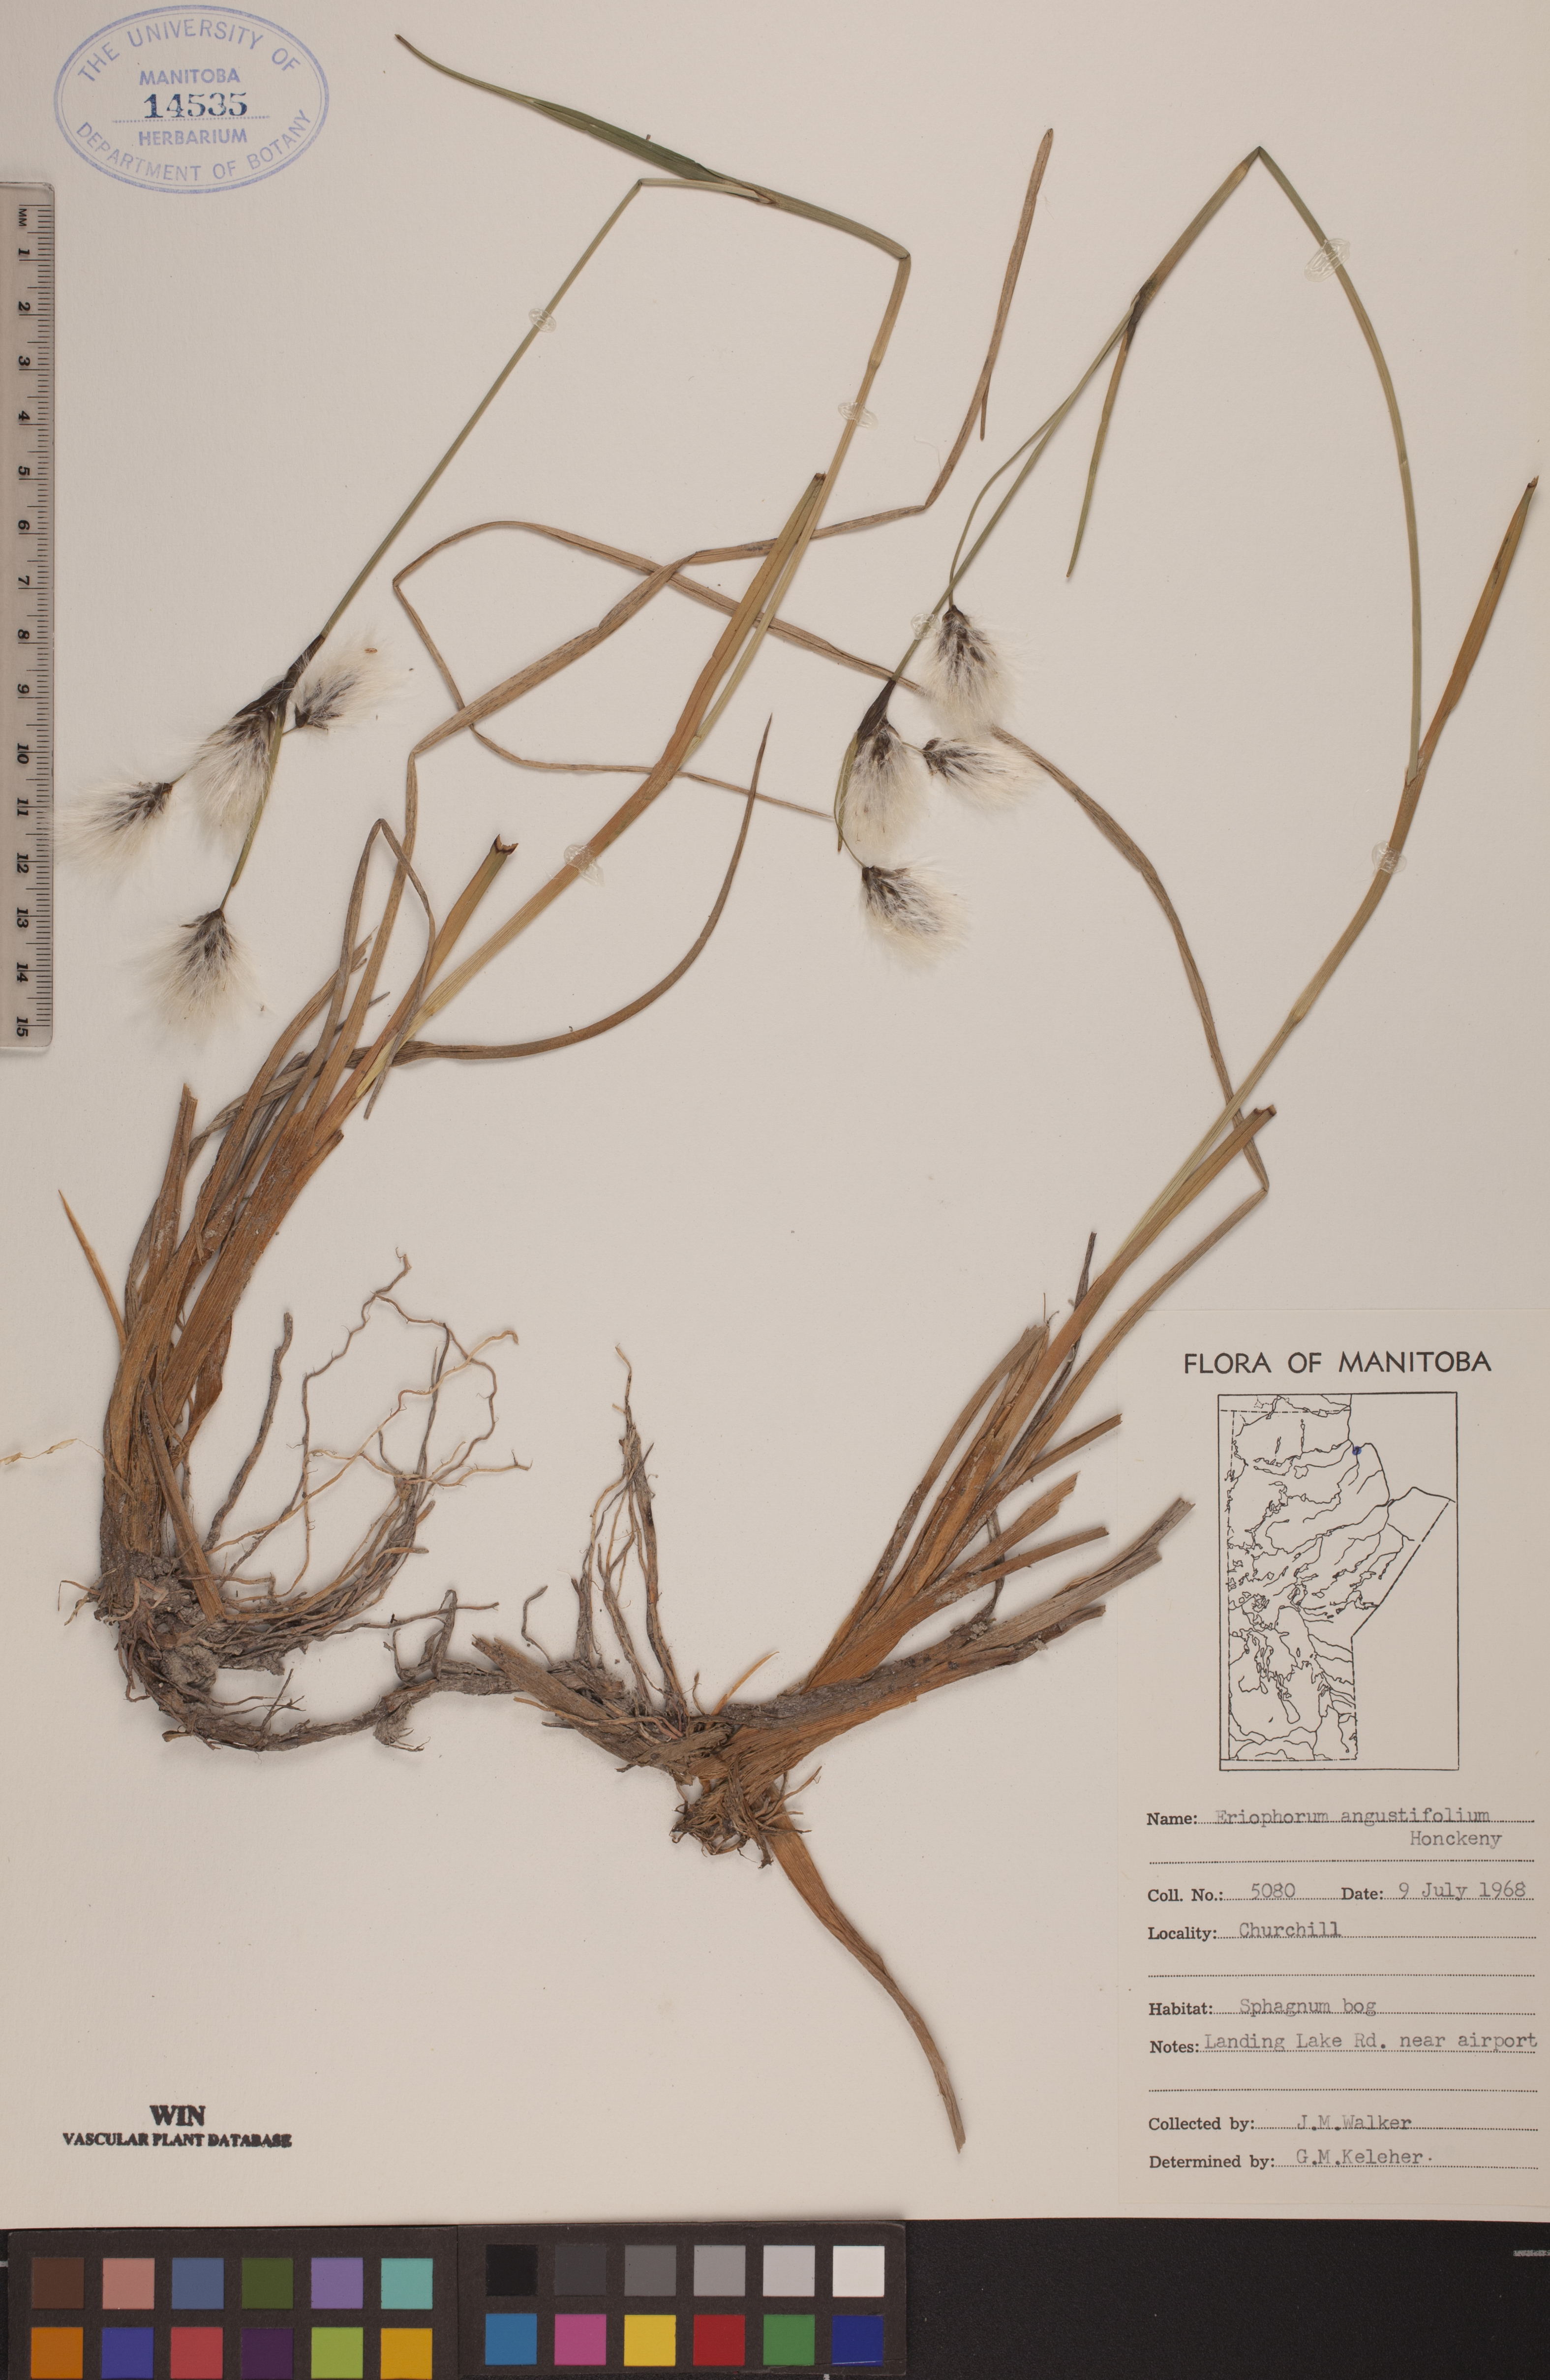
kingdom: Plantae
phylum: Tracheophyta
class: Liliopsida
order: Poales
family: Cyperaceae
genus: Eriophorum
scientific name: Eriophorum angustifolium
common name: Common cottongrass
